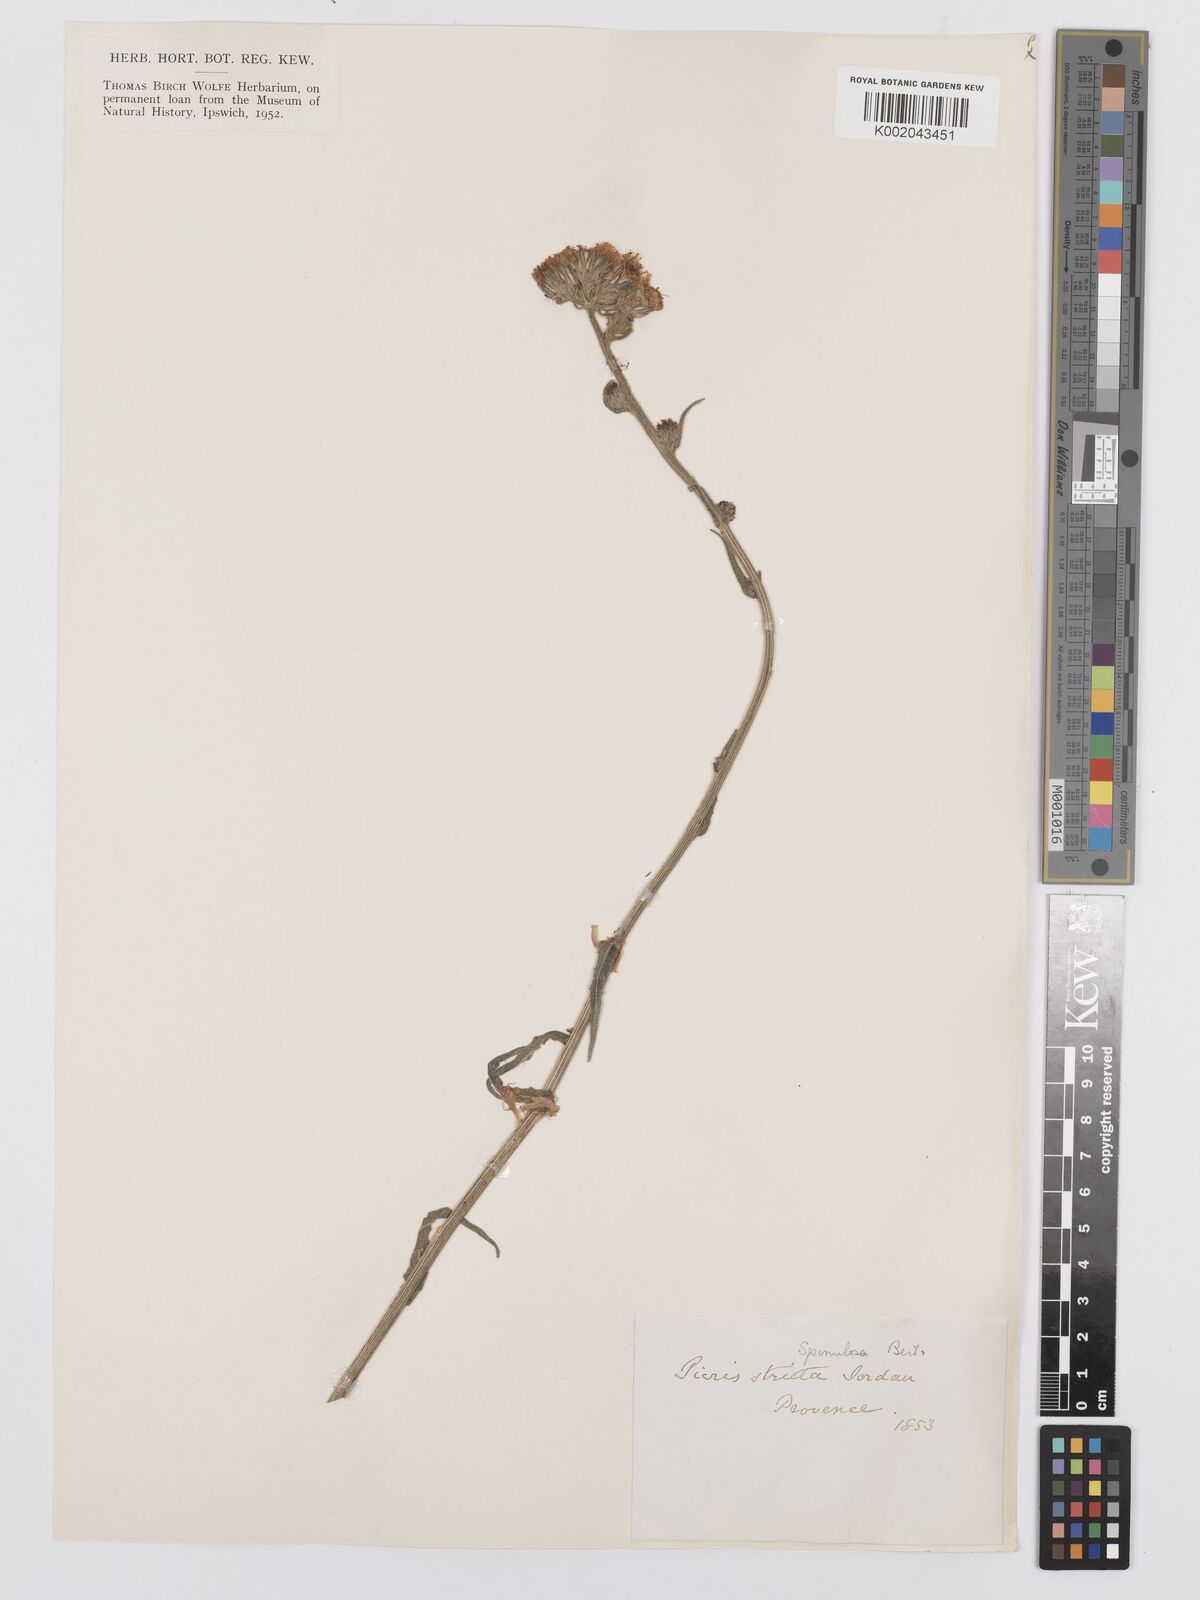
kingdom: Plantae
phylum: Tracheophyta
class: Magnoliopsida
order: Asterales
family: Asteraceae
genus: Picris
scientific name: Picris hieracioides
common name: Hawkweed oxtongue
